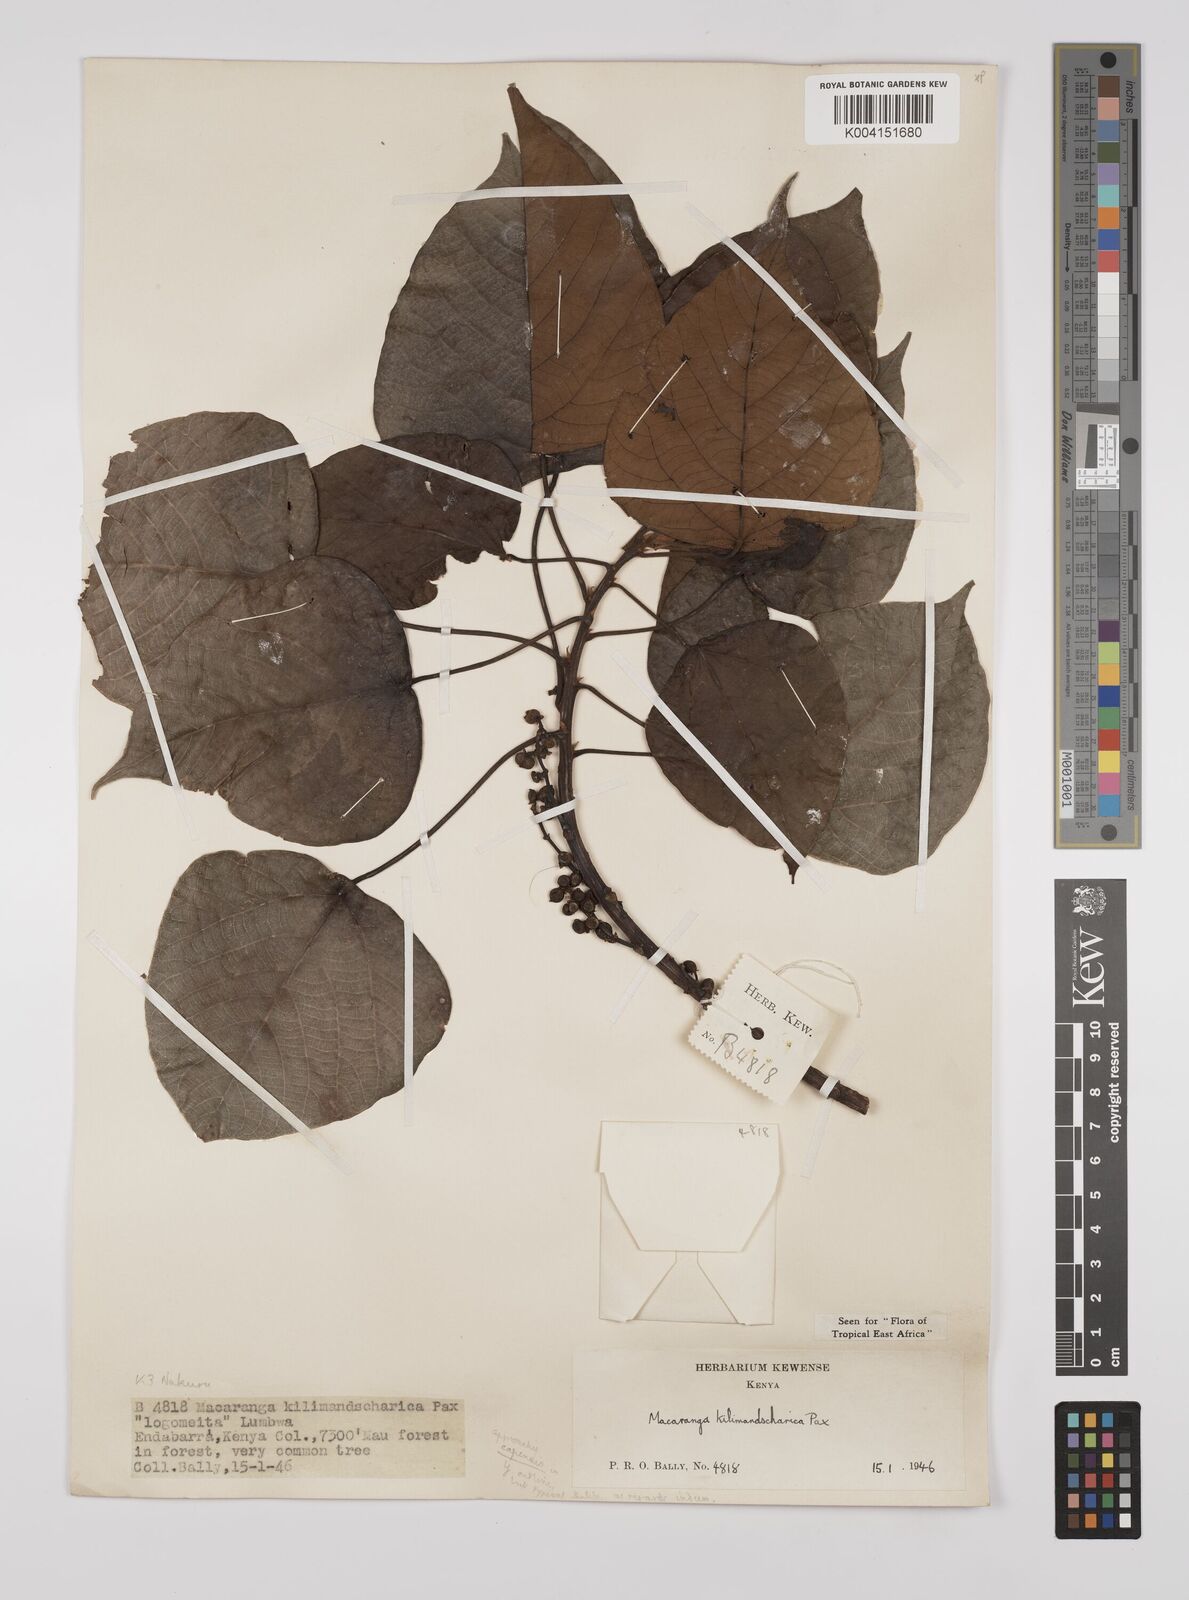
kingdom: Plantae
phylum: Tracheophyta
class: Magnoliopsida
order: Malpighiales
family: Euphorbiaceae
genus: Macaranga
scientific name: Macaranga kilimandscharica
